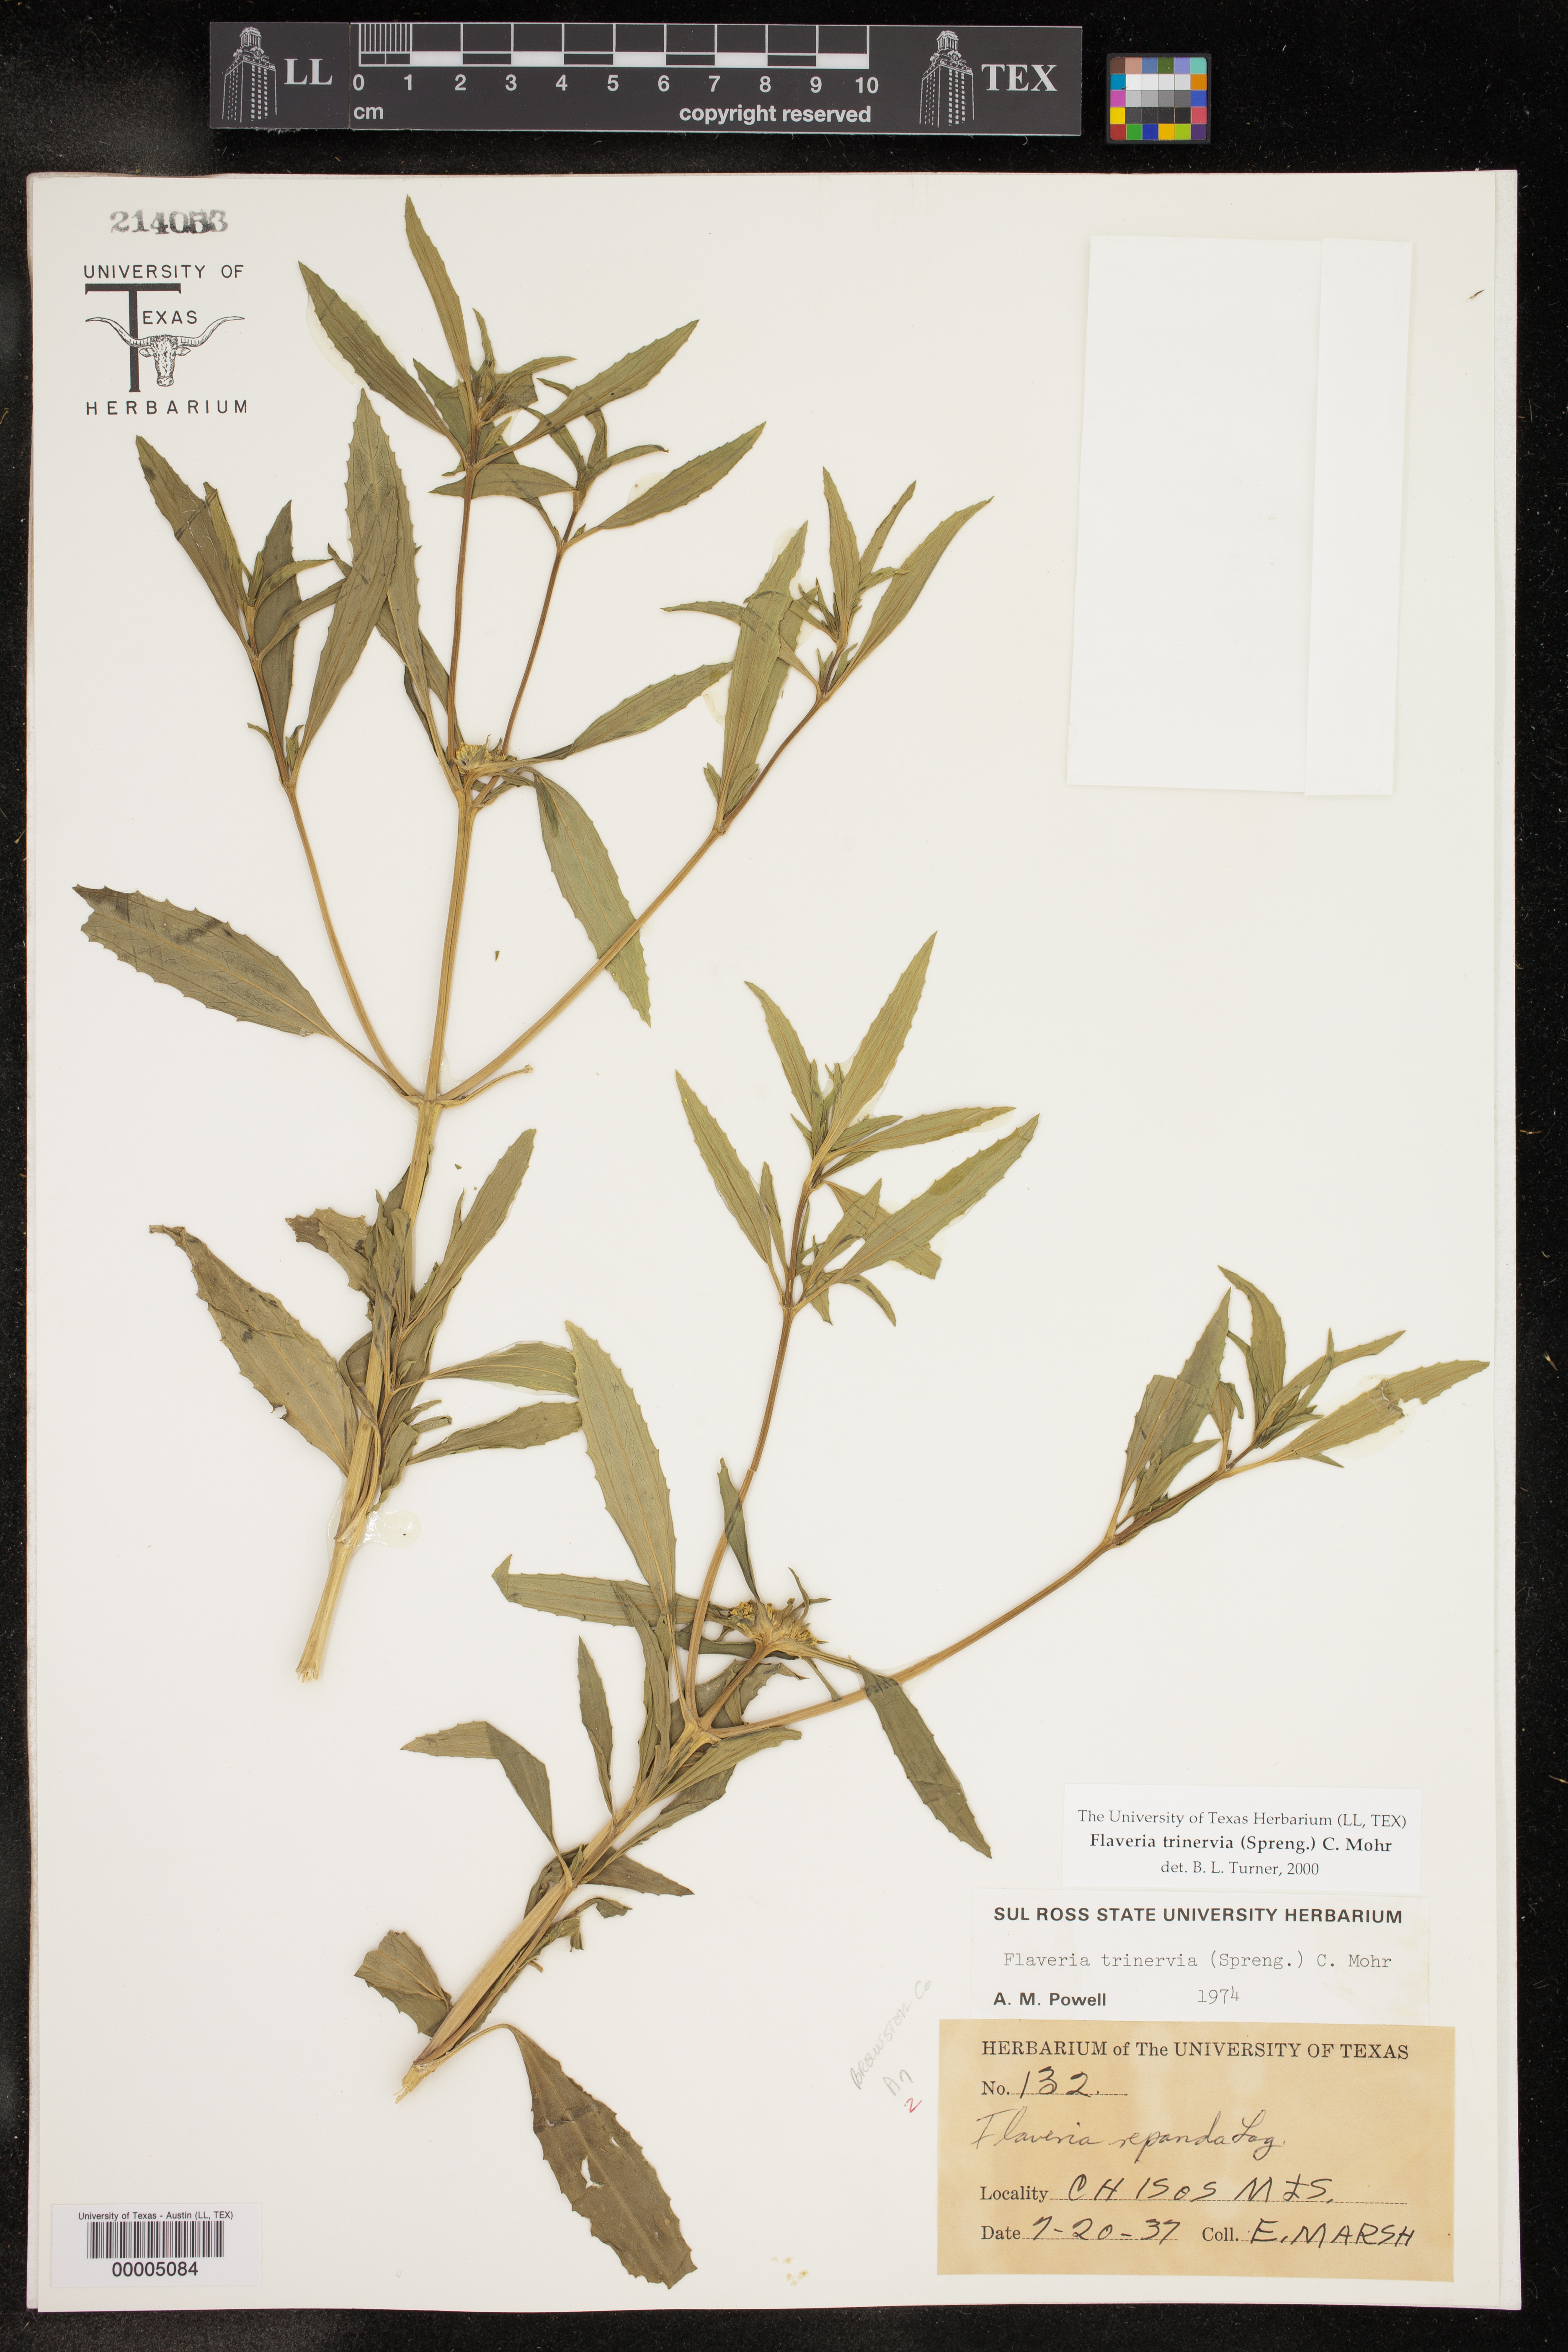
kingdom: Plantae
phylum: Tracheophyta
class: Magnoliopsida
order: Asterales
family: Asteraceae
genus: Flaveria
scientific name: Flaveria trinervia
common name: Clustered yellowtops
